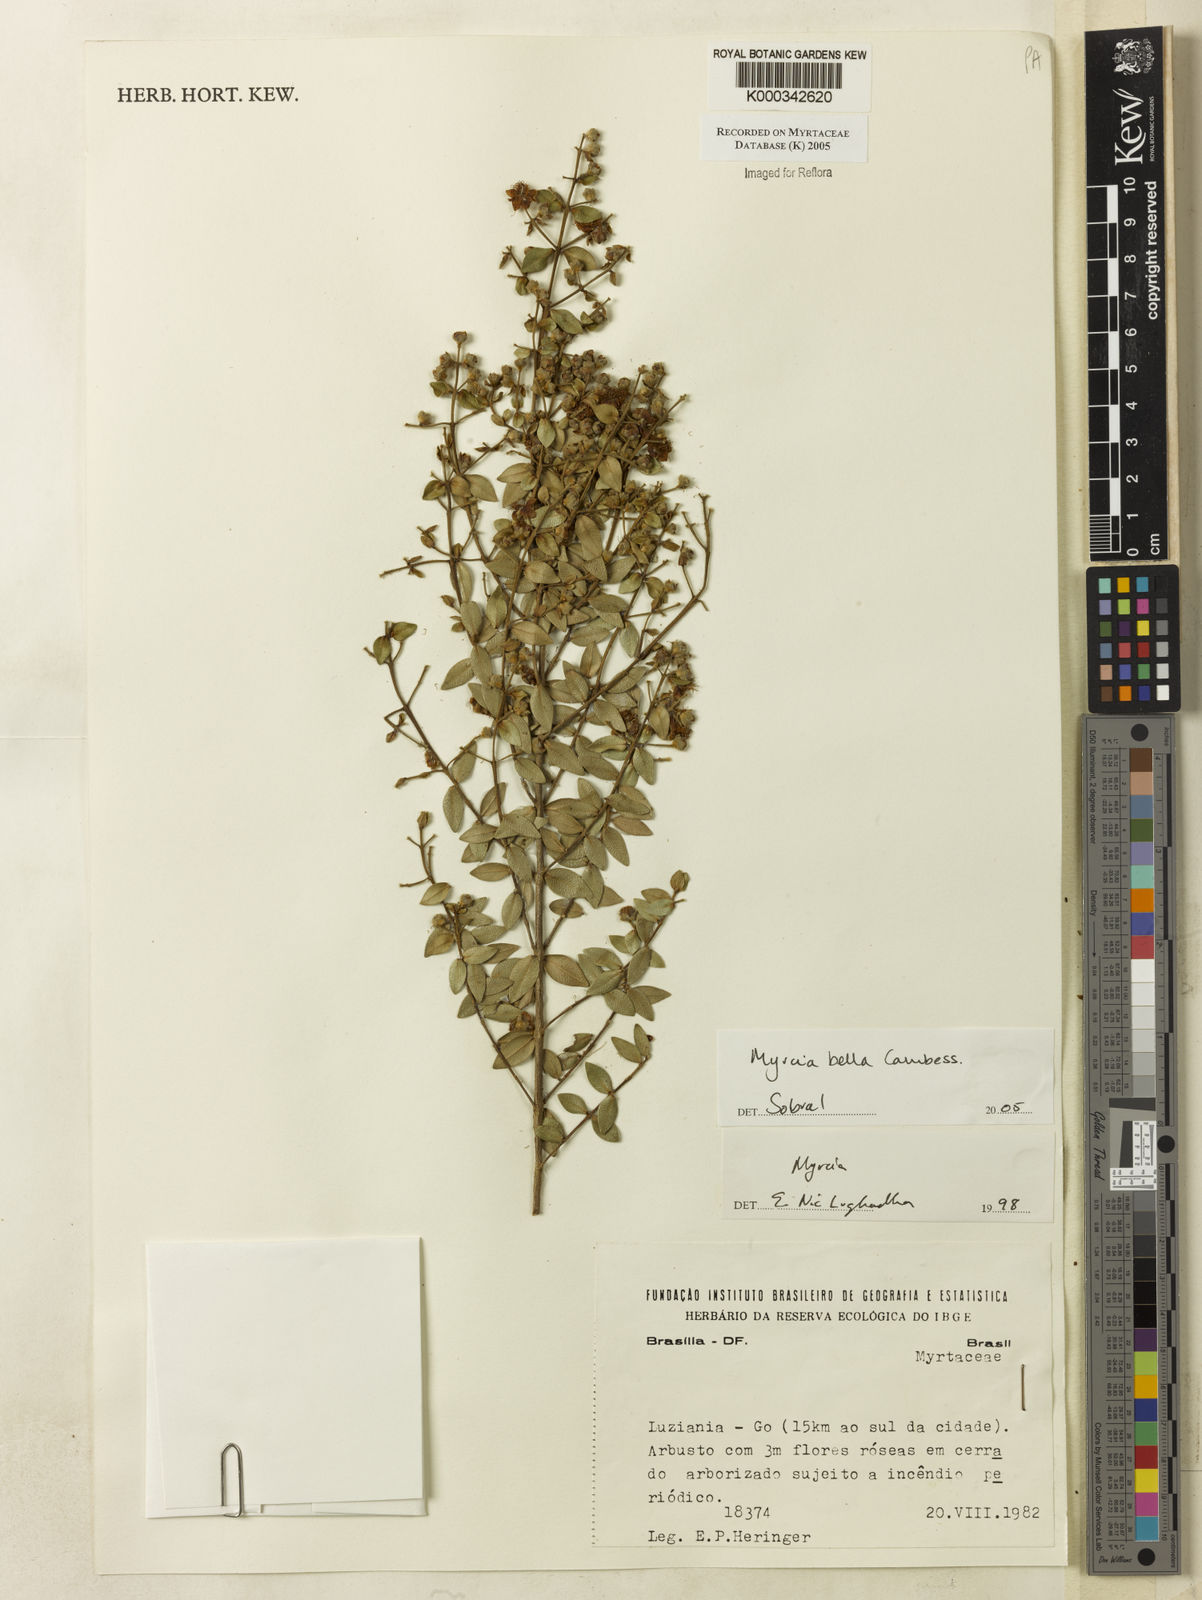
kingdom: Plantae
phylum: Tracheophyta
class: Magnoliopsida
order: Myrtales
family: Myrtaceae
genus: Myrcia
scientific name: Myrcia bella
